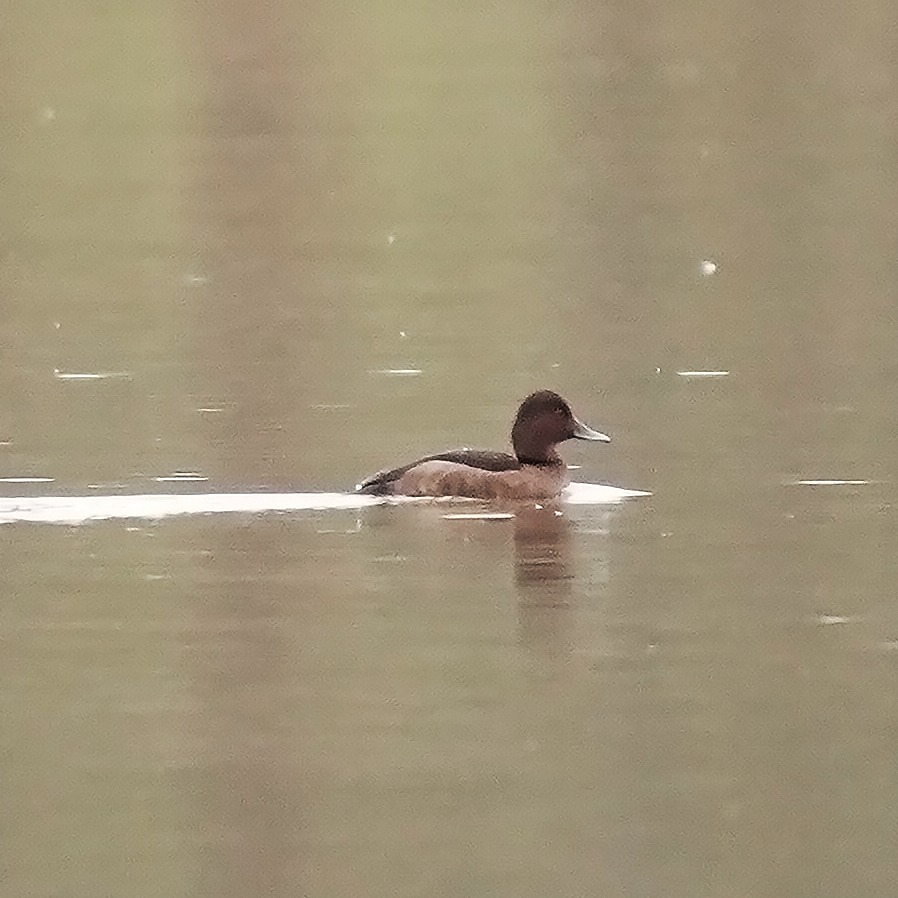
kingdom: Animalia
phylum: Chordata
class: Aves
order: Anseriformes
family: Anatidae
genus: Aythya
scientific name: Aythya nyroca
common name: Hvidøjet and
